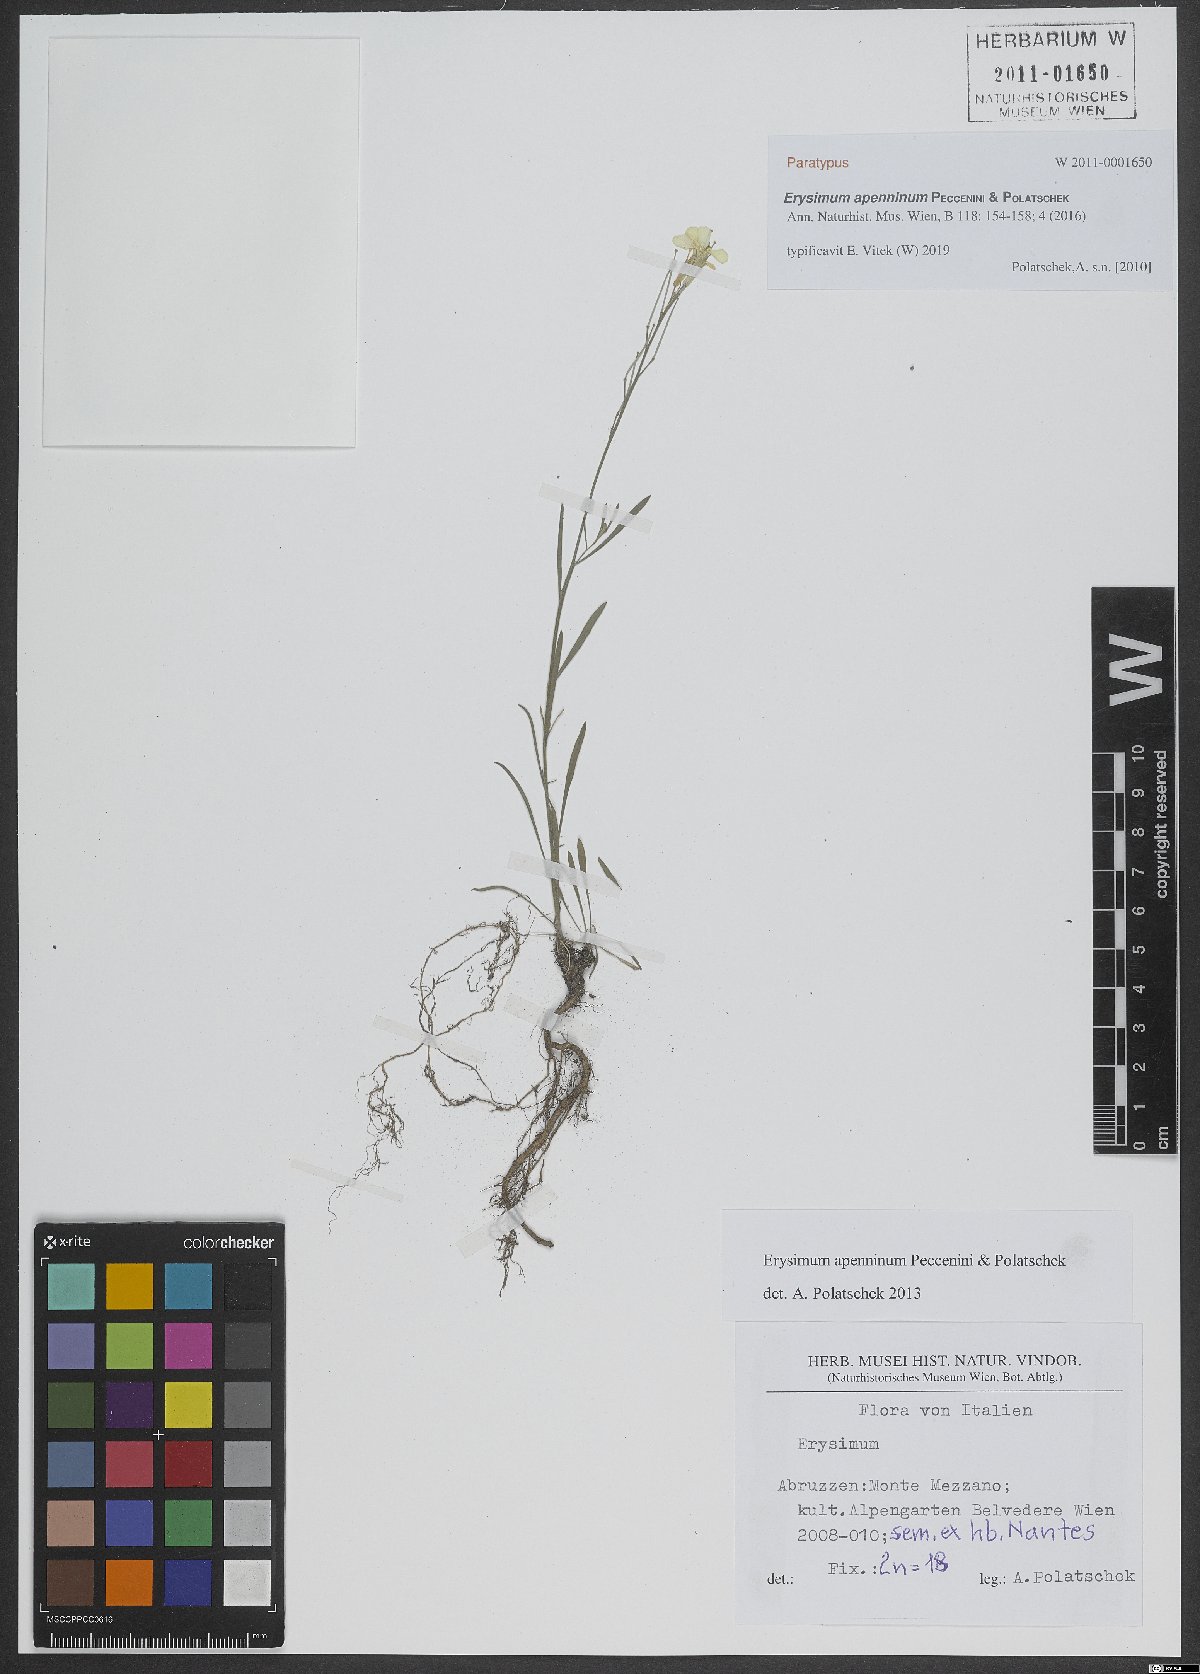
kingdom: Plantae
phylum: Tracheophyta
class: Magnoliopsida
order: Brassicales
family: Brassicaceae
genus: Erysimum
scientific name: Erysimum apenninum
